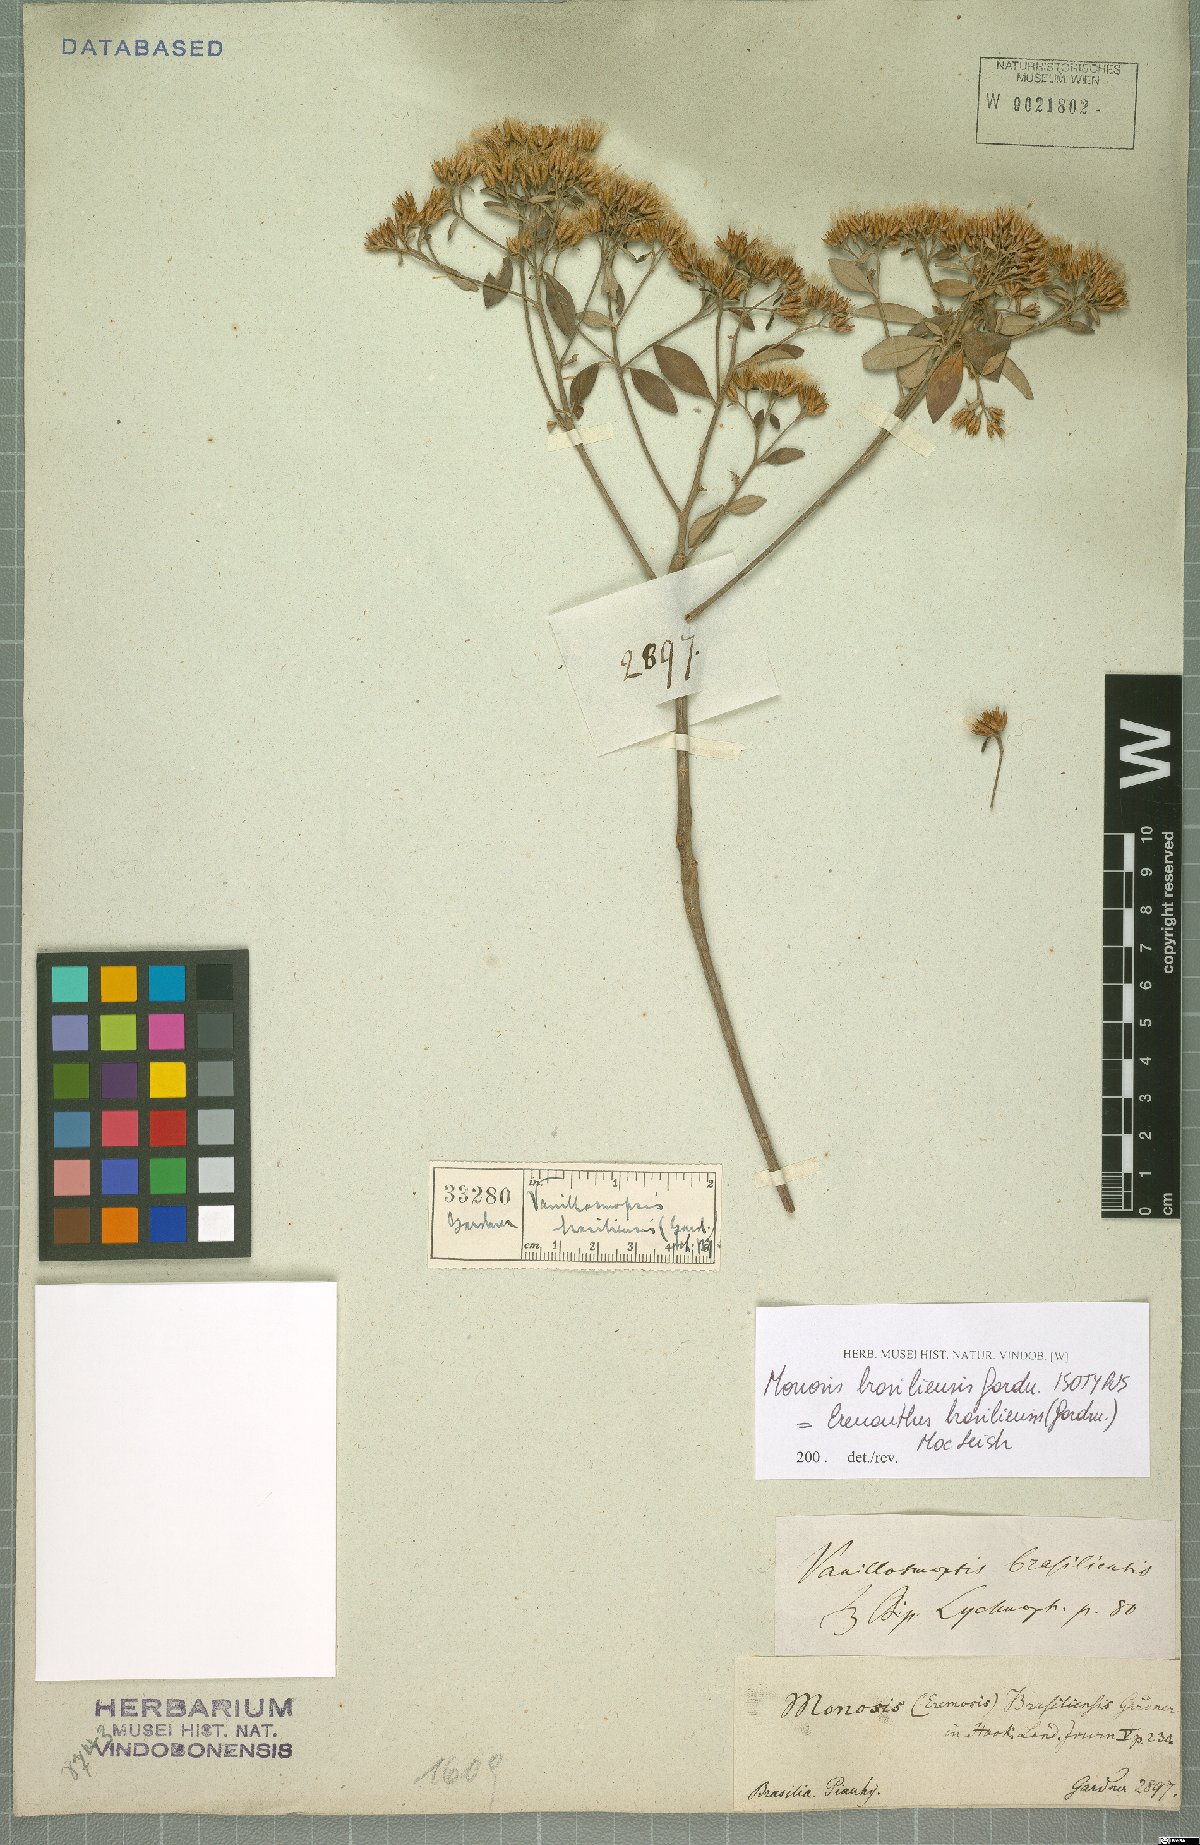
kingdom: Plantae
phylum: Tracheophyta
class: Magnoliopsida
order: Asterales
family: Asteraceae
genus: Eremanthus
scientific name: Eremanthus brasiliensis
